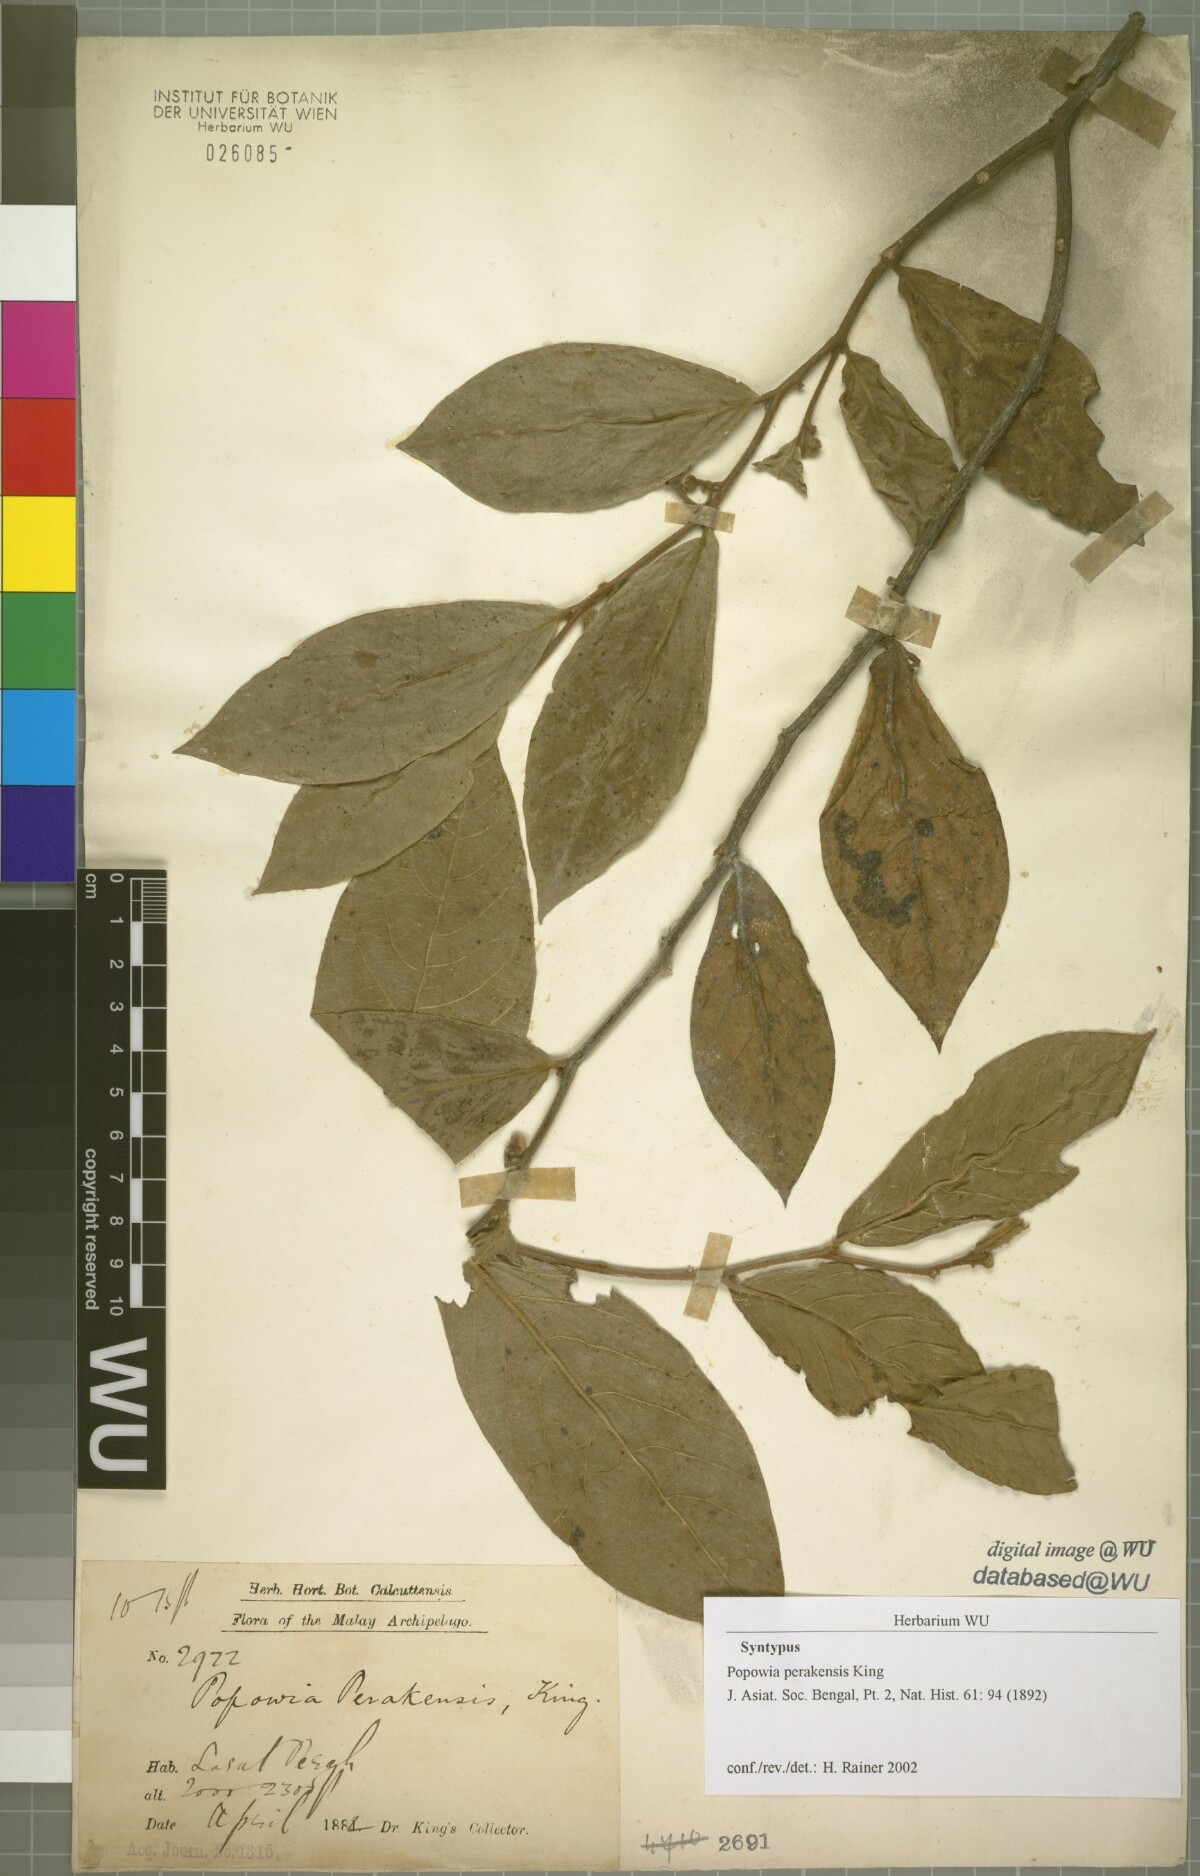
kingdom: Plantae
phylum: Tracheophyta
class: Magnoliopsida
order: Magnoliales
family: Annonaceae
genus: Popowia
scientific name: Popowia perakensis
